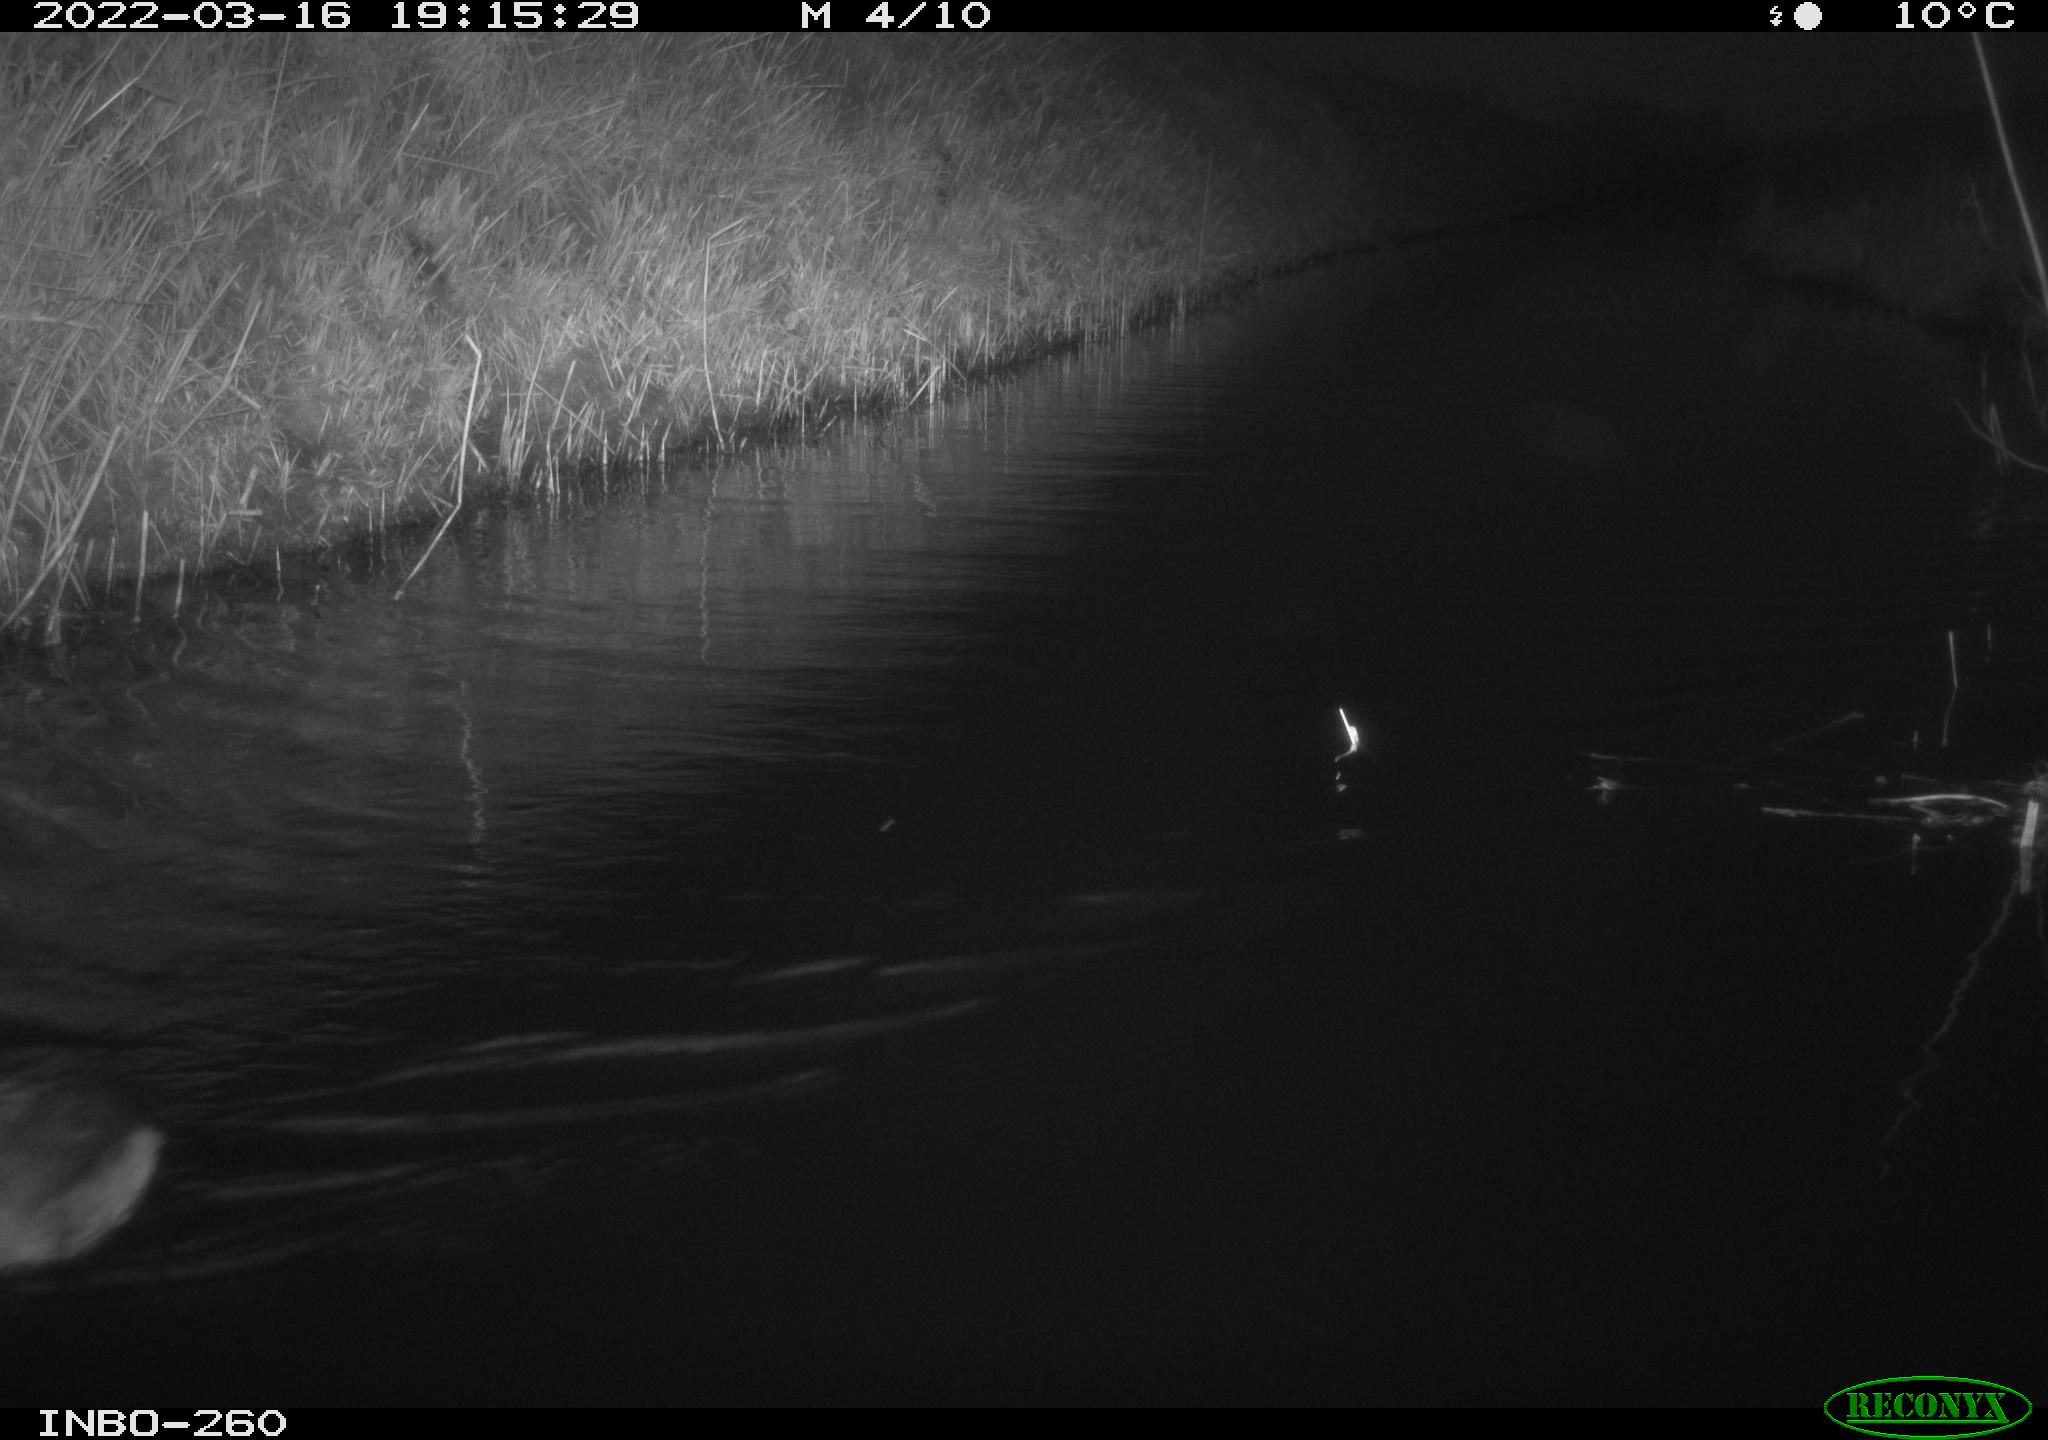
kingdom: Animalia
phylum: Chordata
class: Aves
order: Gruiformes
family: Rallidae
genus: Fulica
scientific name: Fulica atra
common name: Eurasian coot
